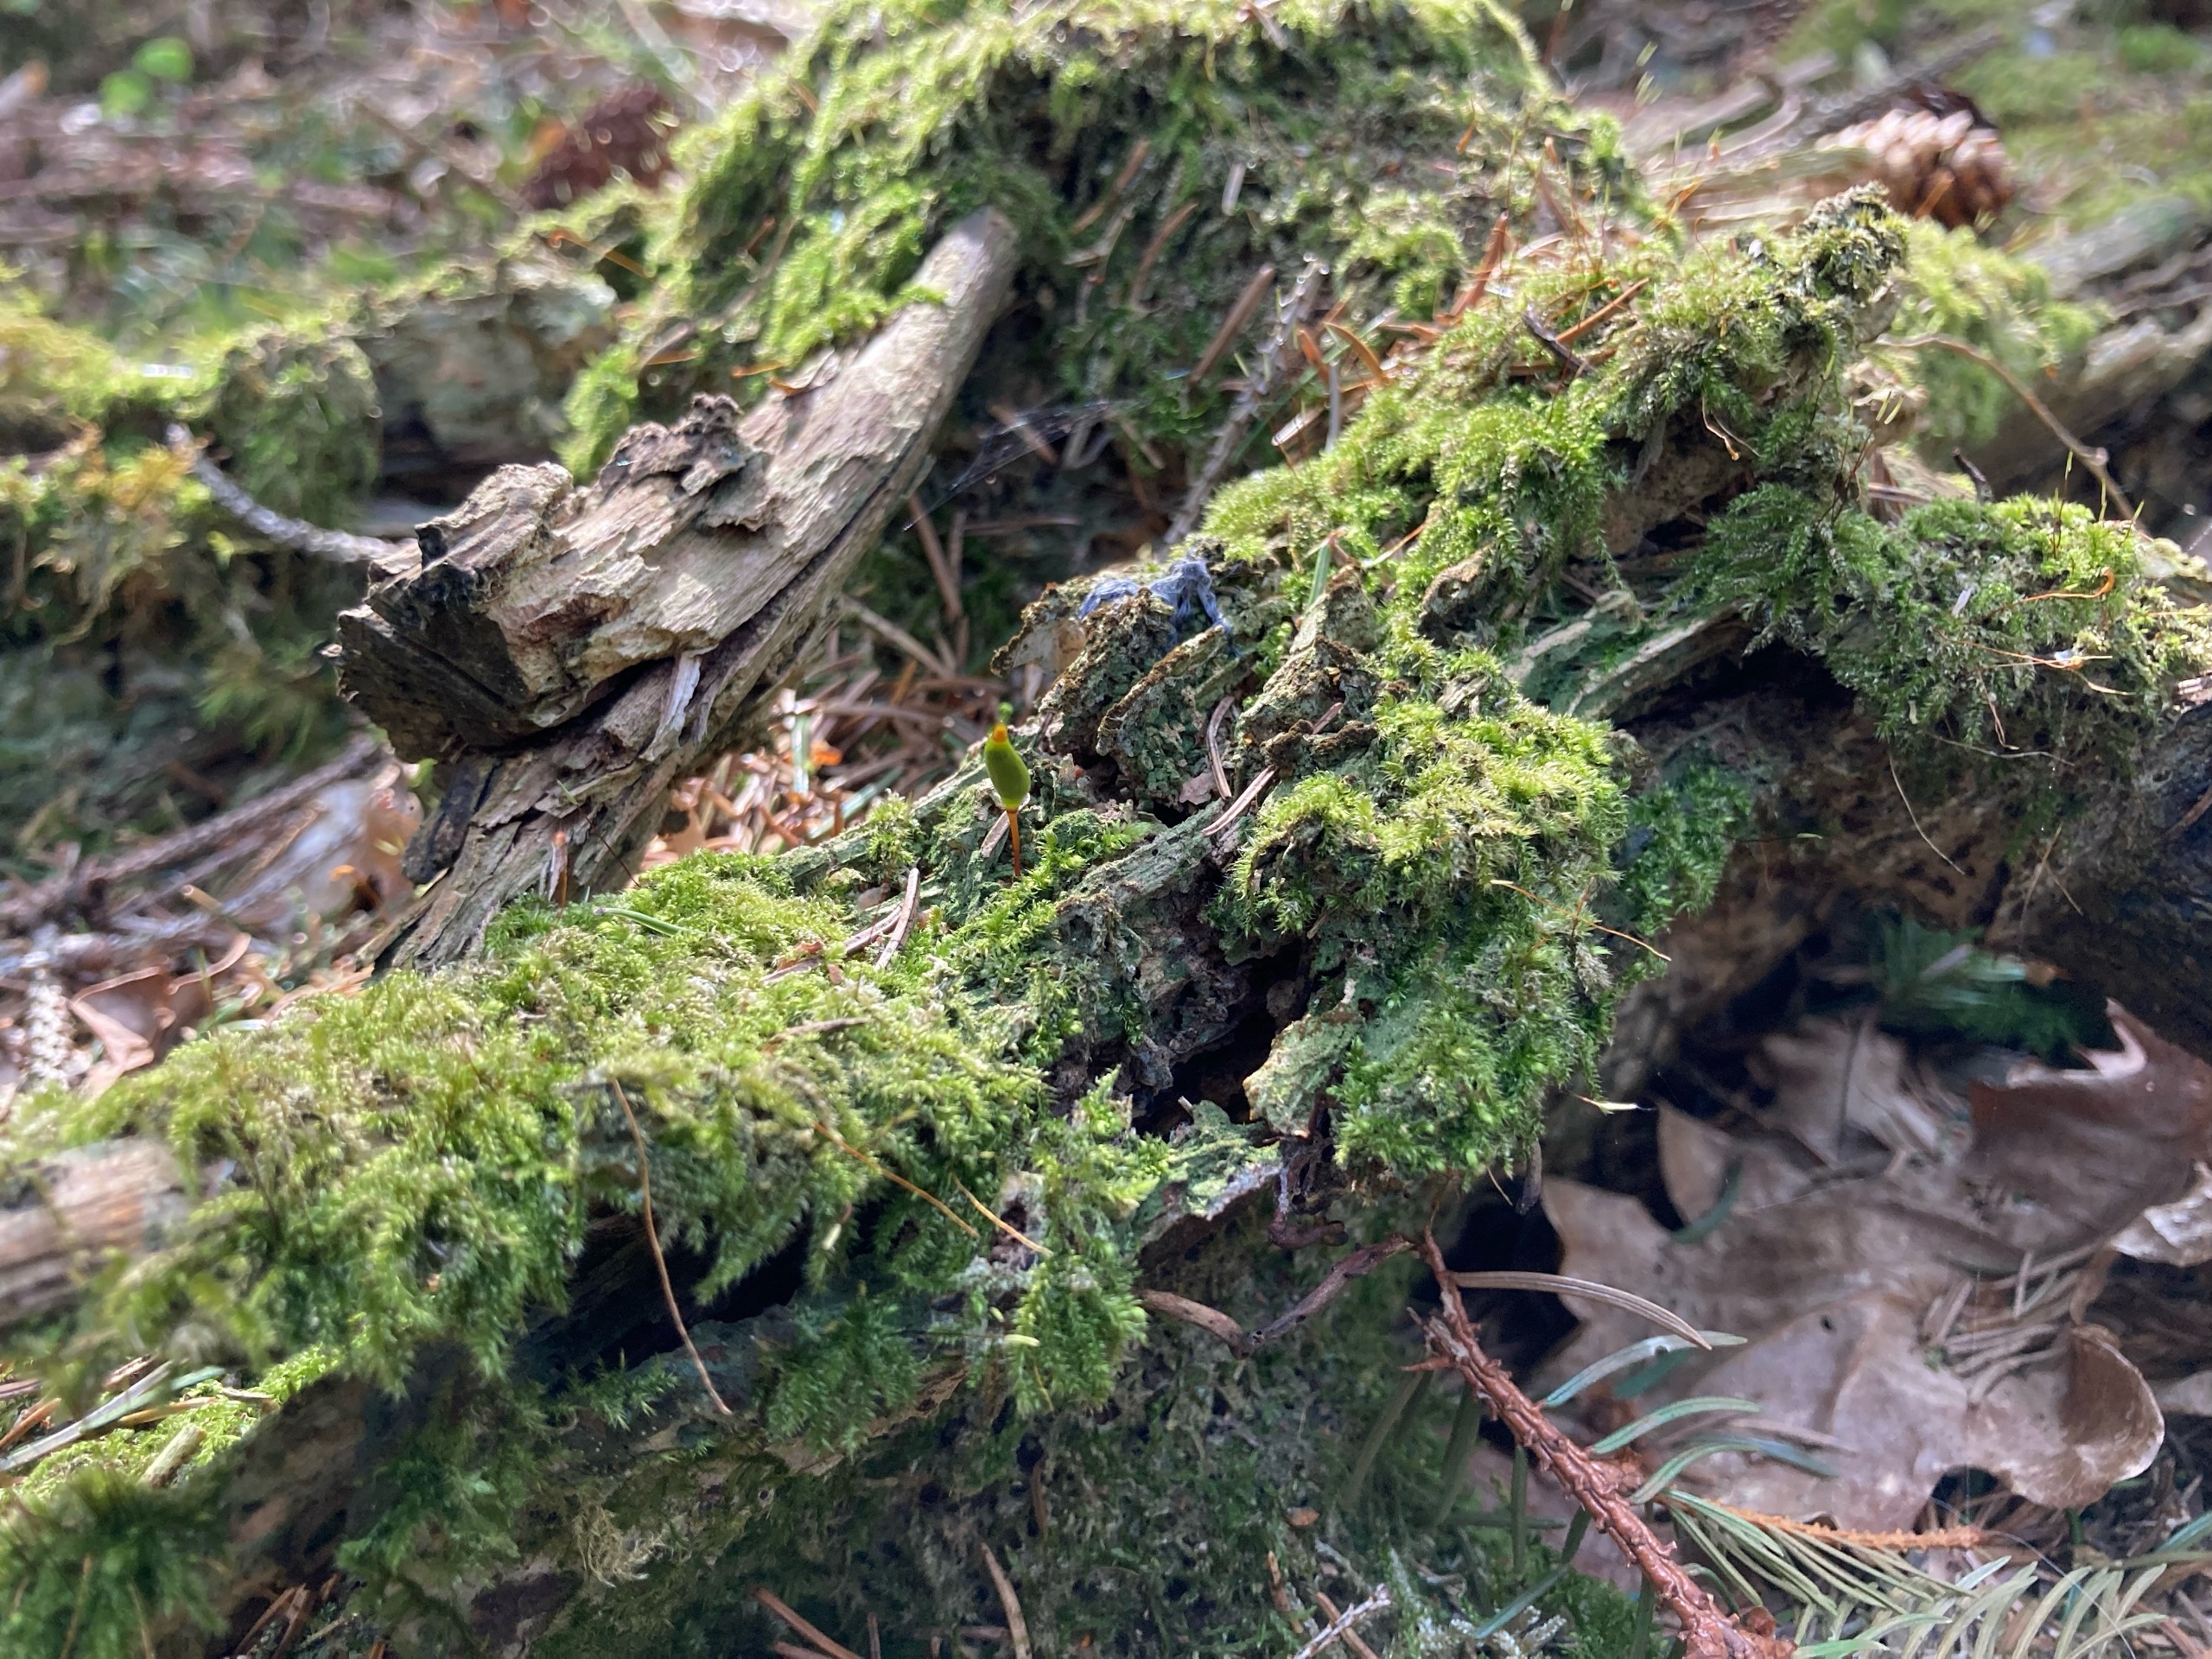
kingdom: Plantae
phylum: Bryophyta
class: Bryopsida
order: Buxbaumiales
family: Buxbaumiaceae
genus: Buxbaumia
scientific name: Buxbaumia viridis
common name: Grøn buxbaumia
